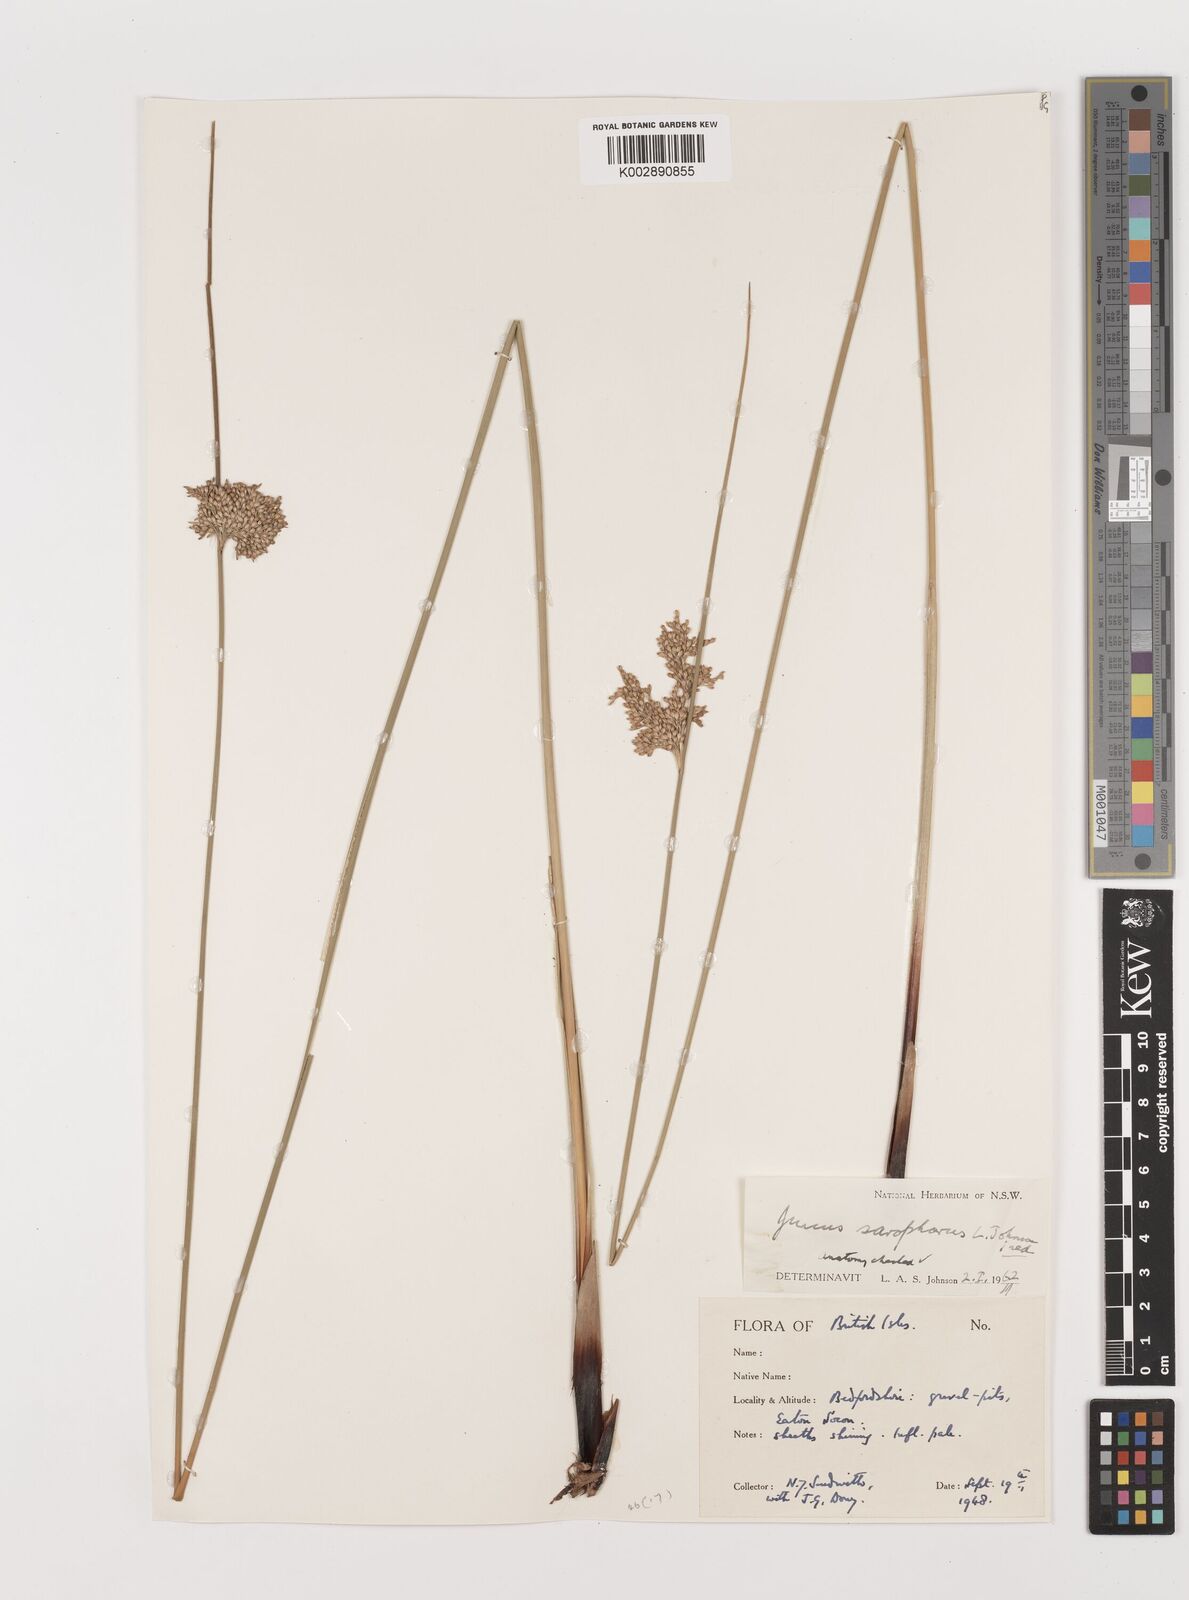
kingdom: Plantae
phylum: Tracheophyta
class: Liliopsida
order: Poales
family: Juncaceae
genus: Juncus
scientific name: Juncus sarophorus
